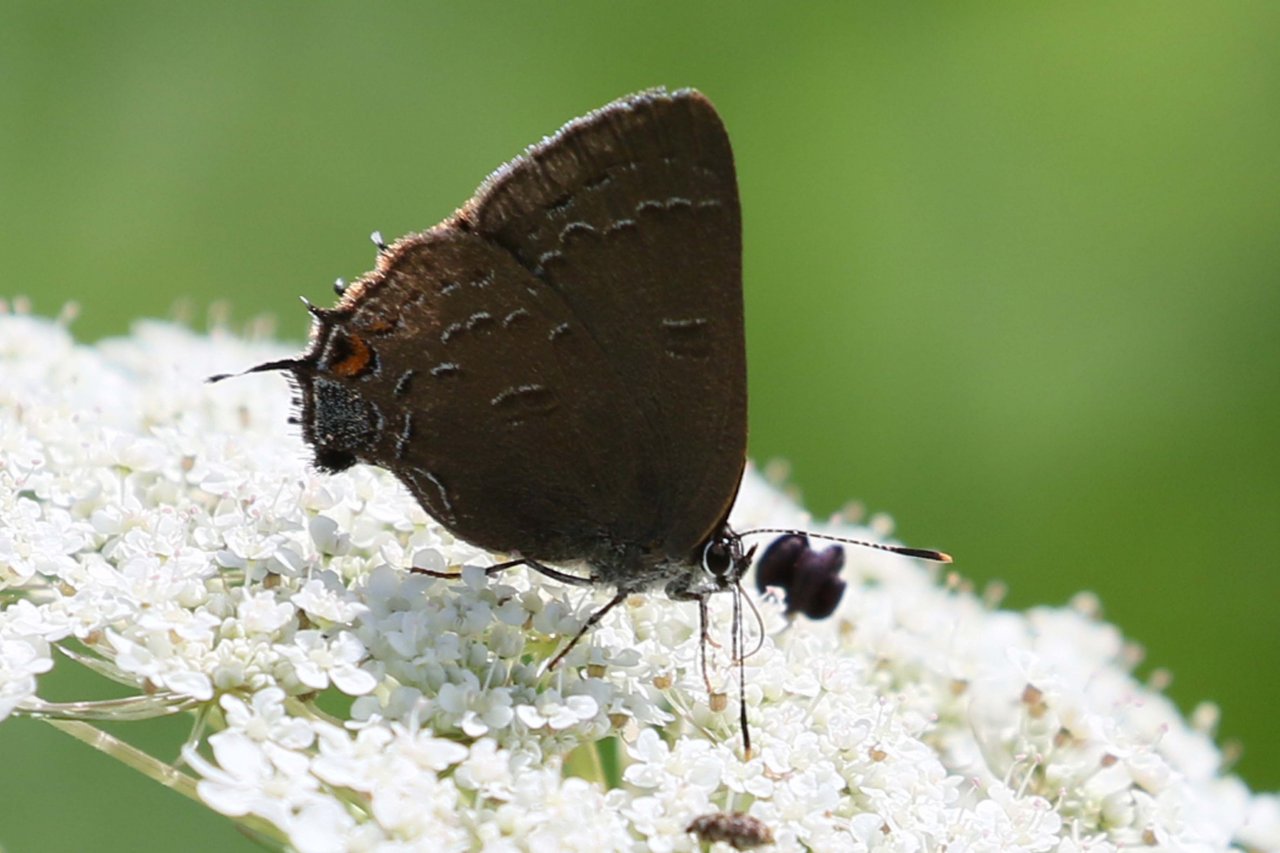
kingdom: Animalia
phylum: Arthropoda
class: Insecta
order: Lepidoptera
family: Lycaenidae
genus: Satyrium
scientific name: Satyrium calanus
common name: Banded Hairstreak
